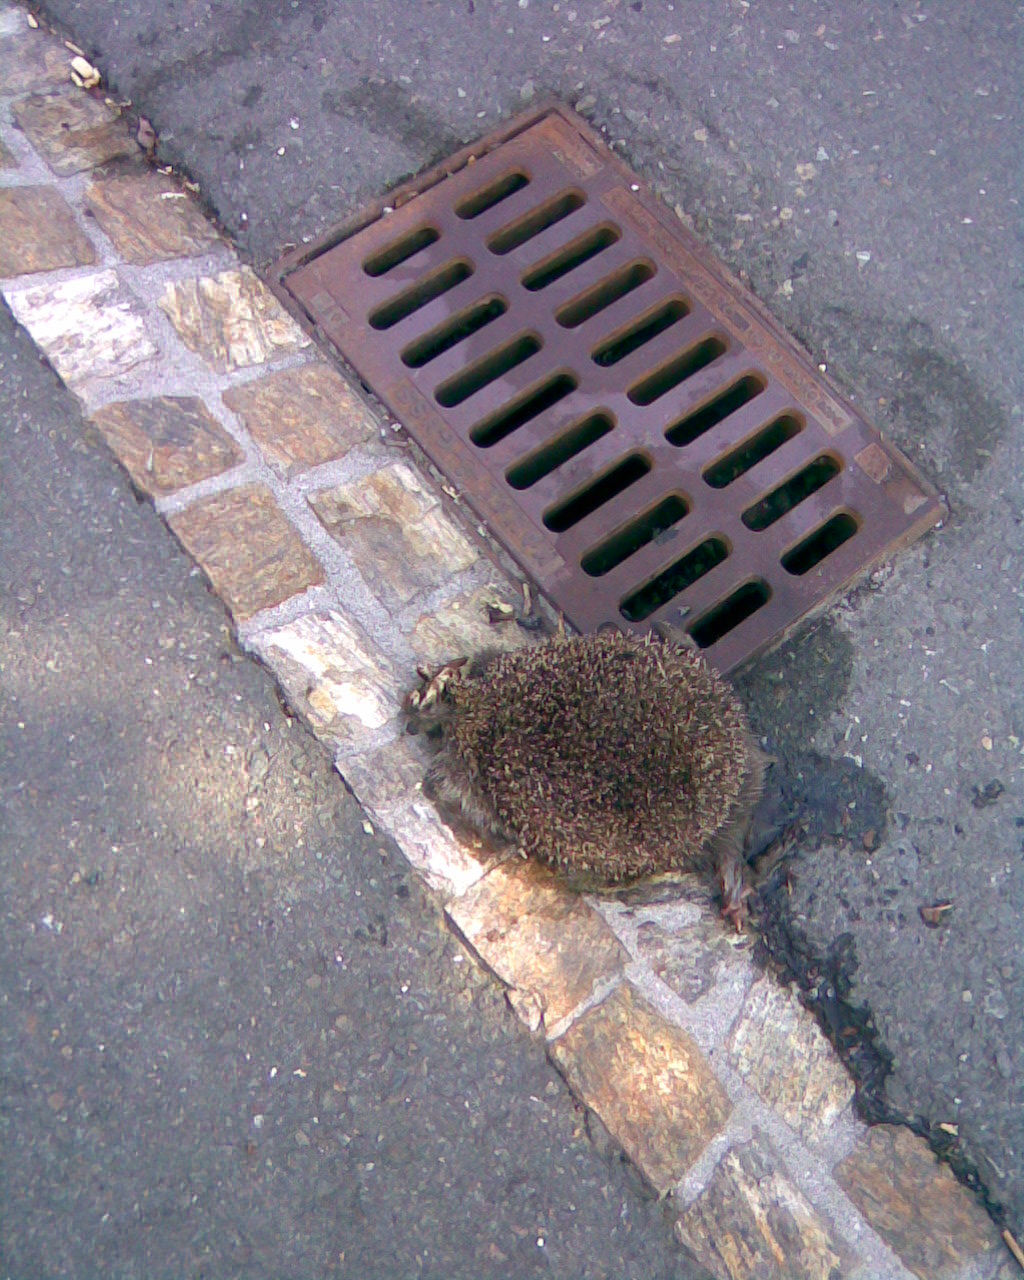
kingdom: Animalia
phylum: Chordata
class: Mammalia
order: Erinaceomorpha
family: Erinaceidae
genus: Erinaceus
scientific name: Erinaceus
